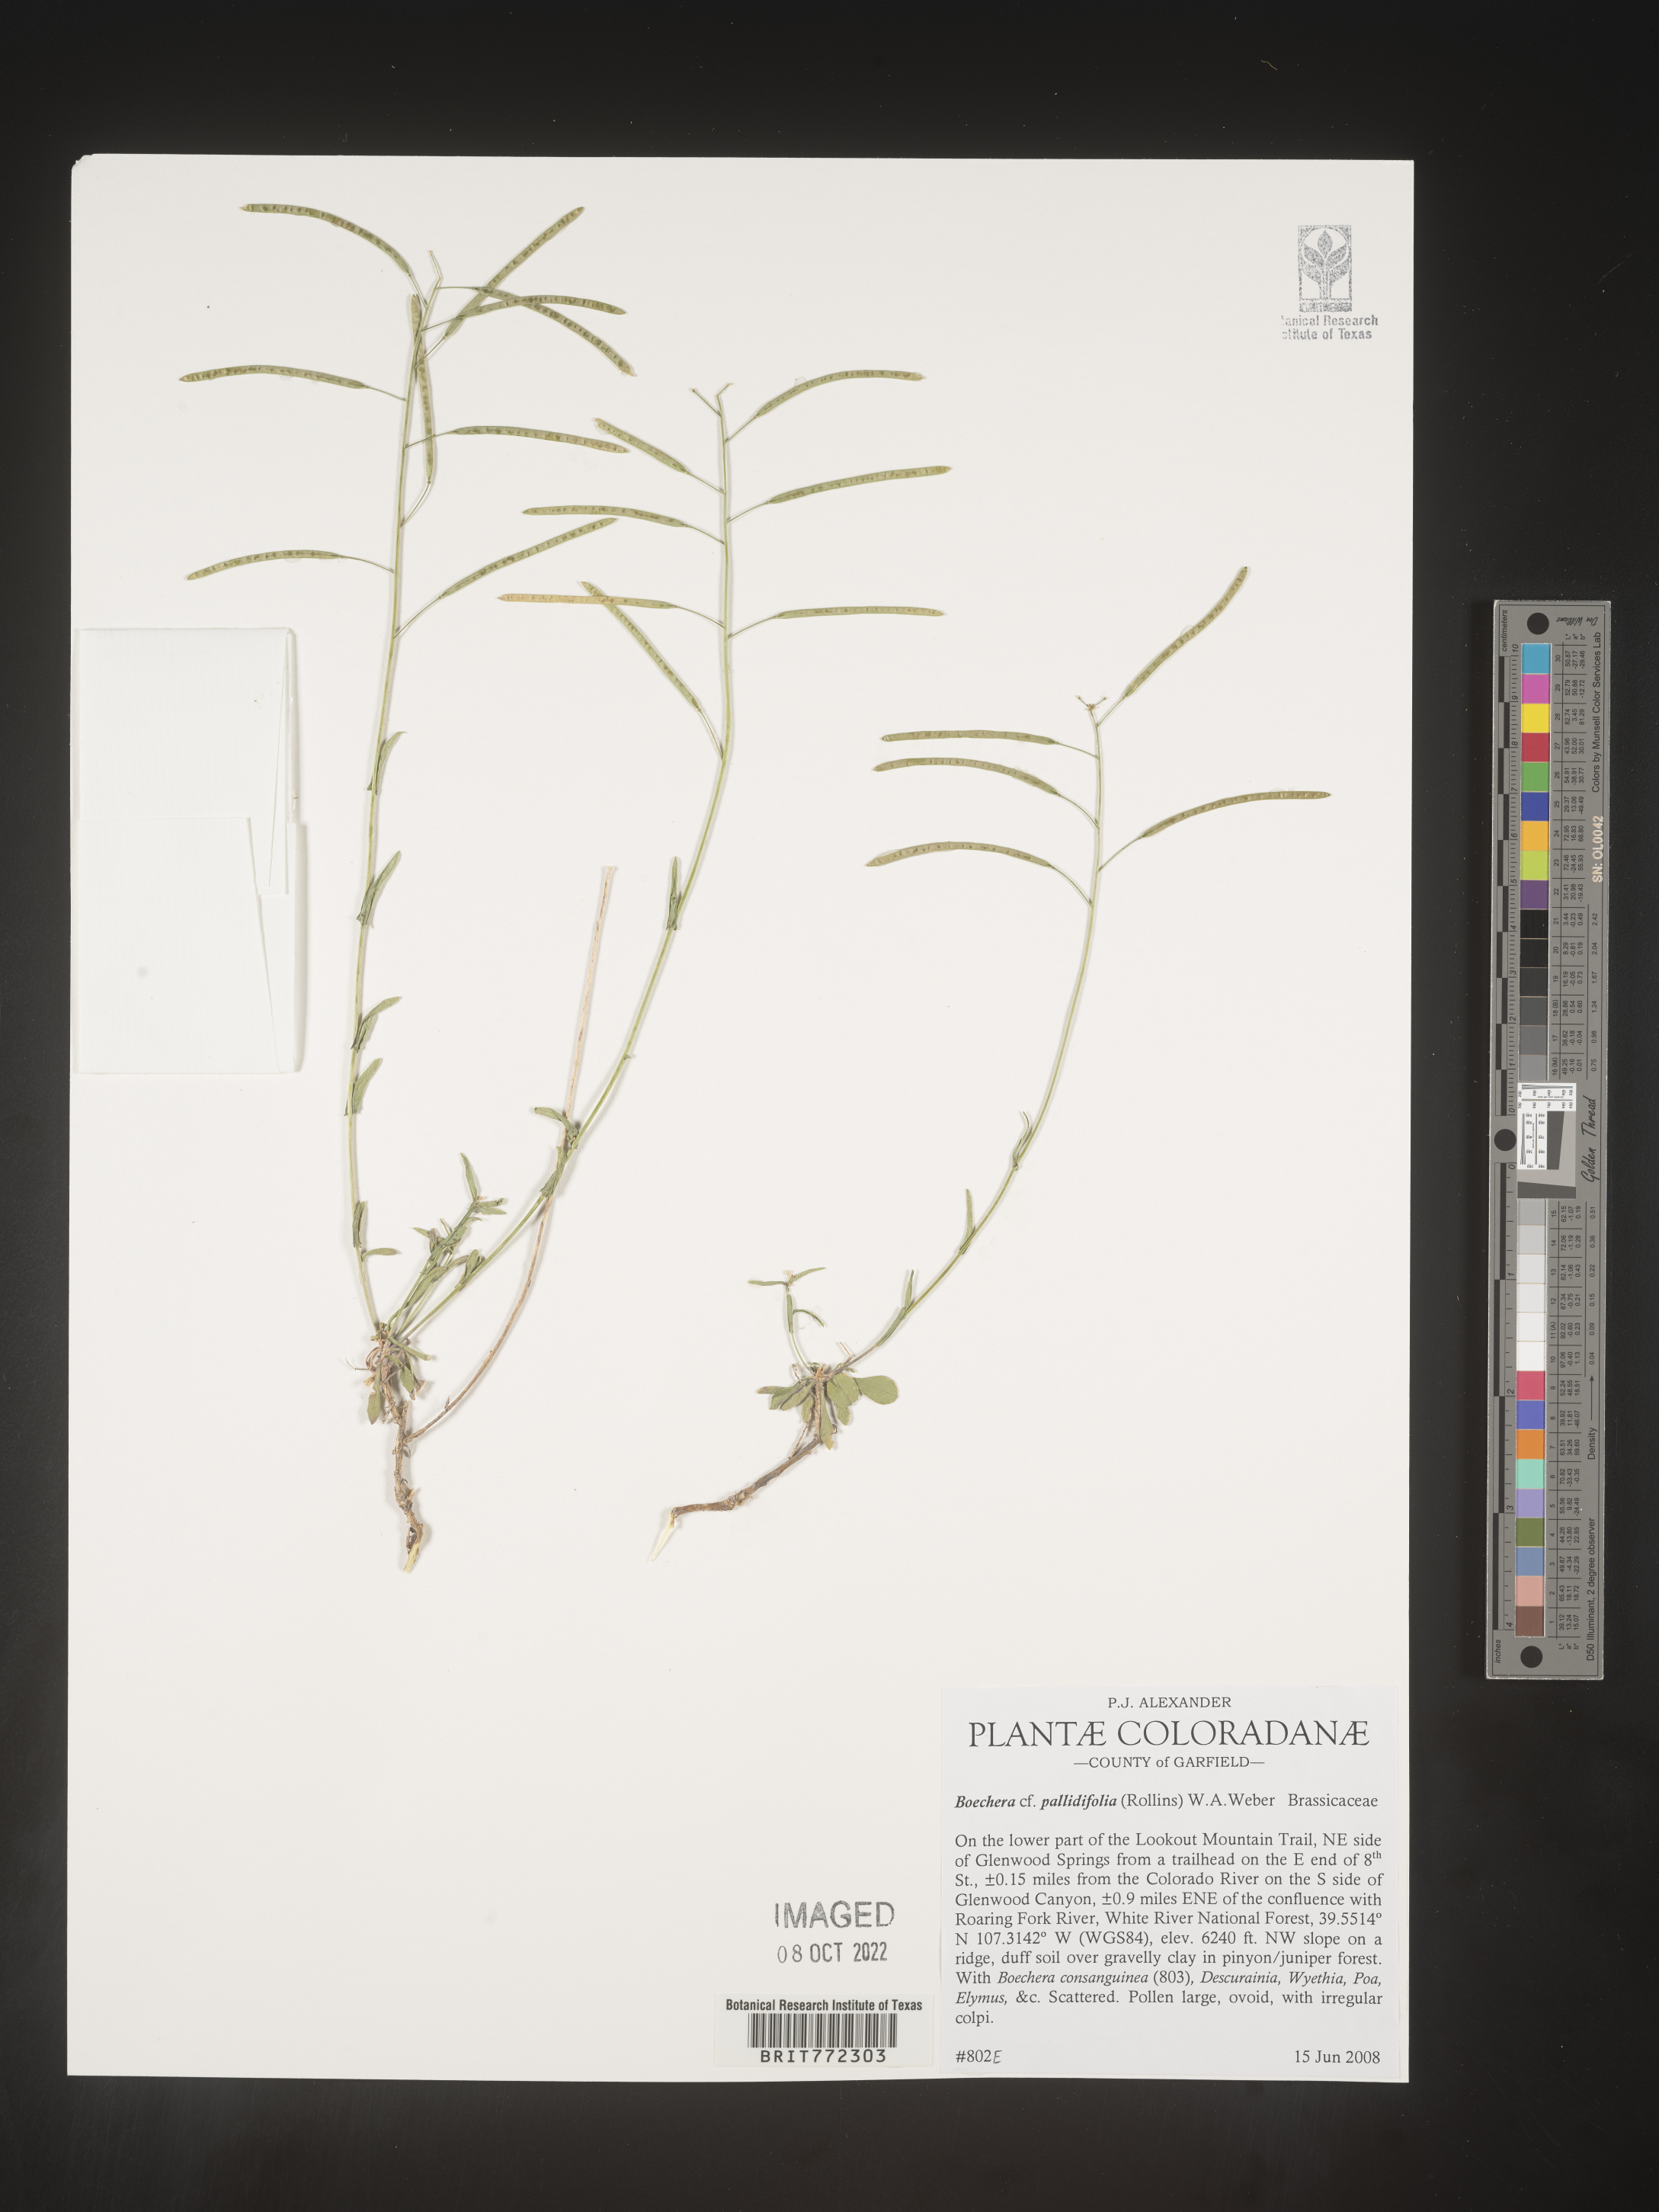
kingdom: Plantae
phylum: Tracheophyta
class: Magnoliopsida
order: Brassicales
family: Brassicaceae
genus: Boechera
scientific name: Boechera
